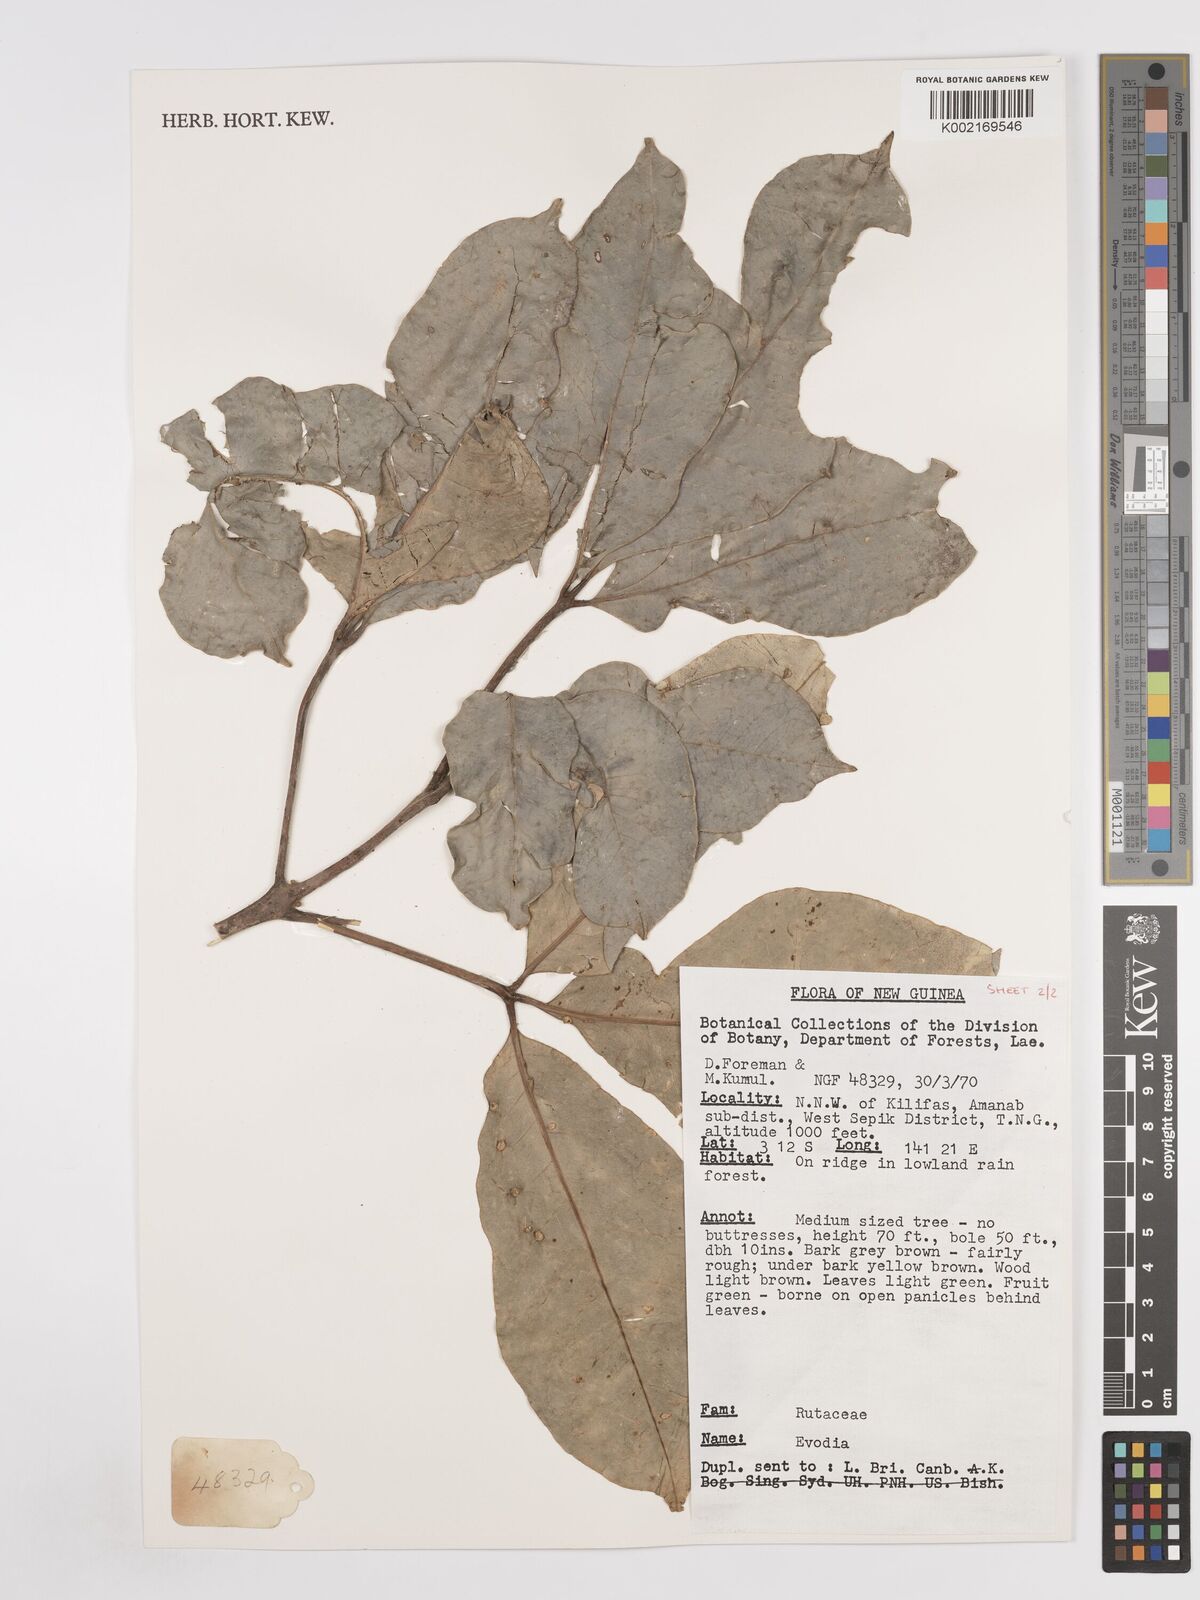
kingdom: Plantae
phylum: Tracheophyta
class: Magnoliopsida
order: Sapindales
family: Rutaceae
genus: Euodia
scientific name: Euodia
